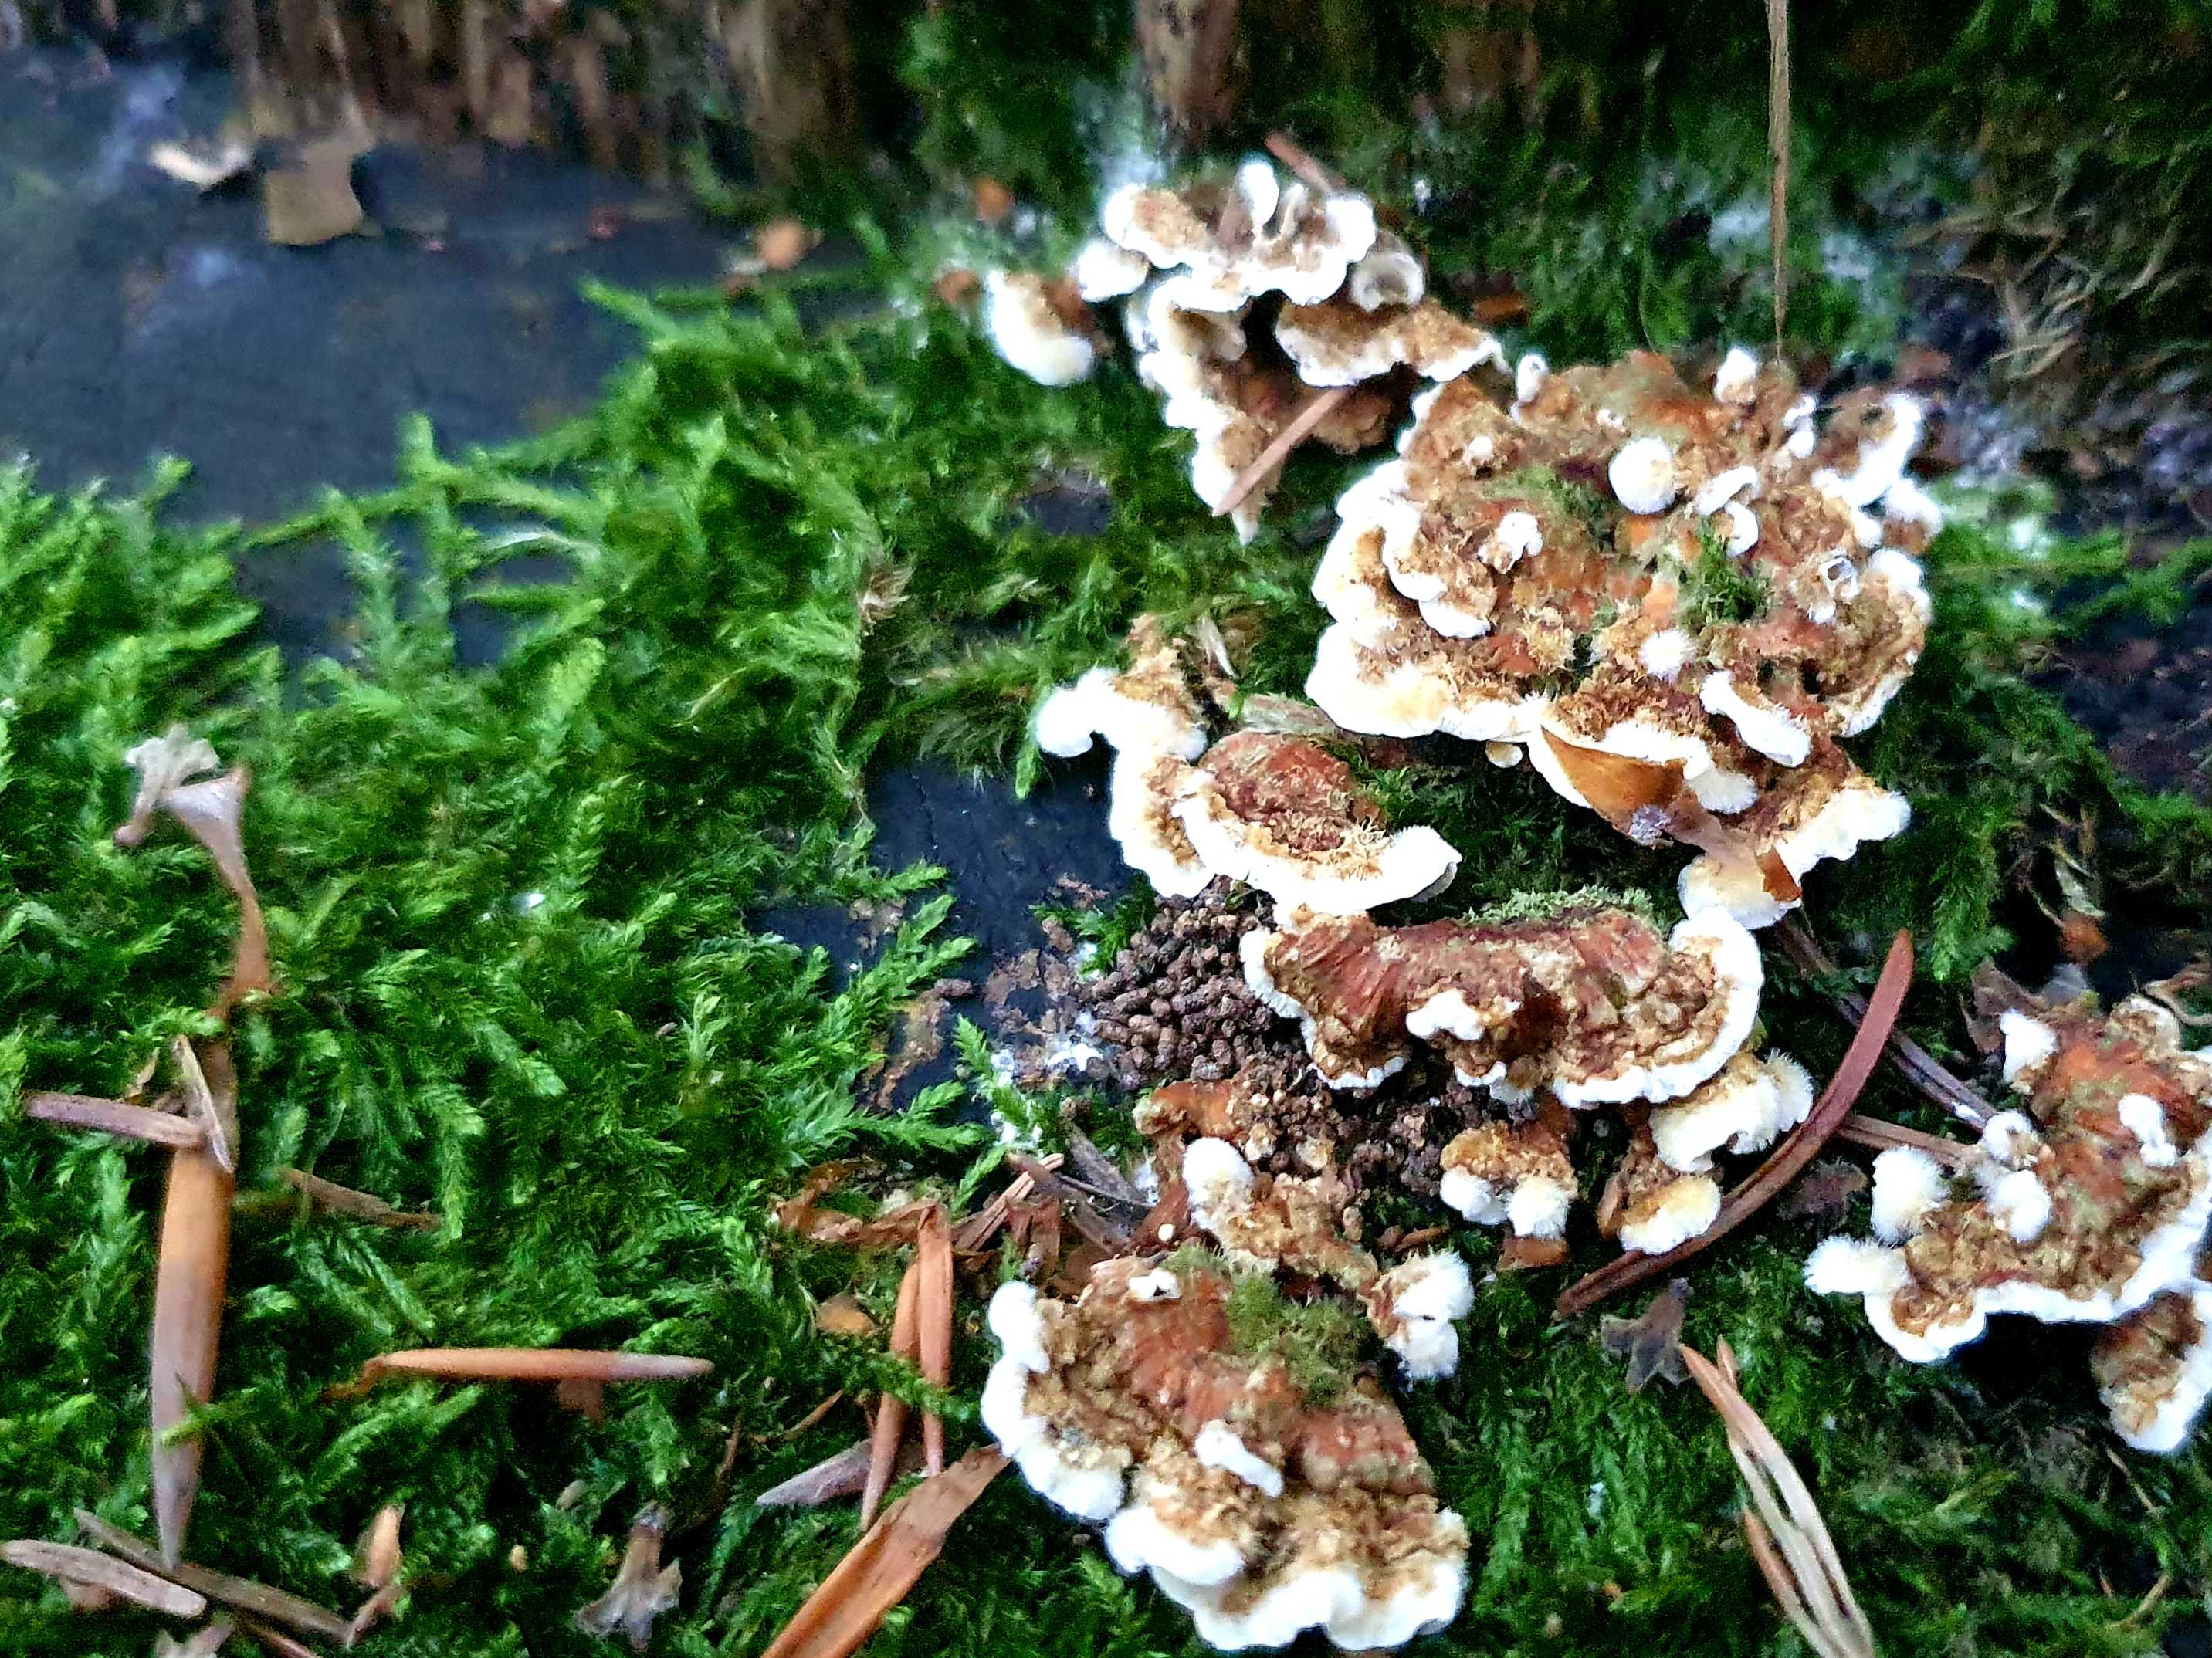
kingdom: Fungi
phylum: Basidiomycota
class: Agaricomycetes
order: Polyporales
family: Polyporaceae
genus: Trametes
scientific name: Trametes
